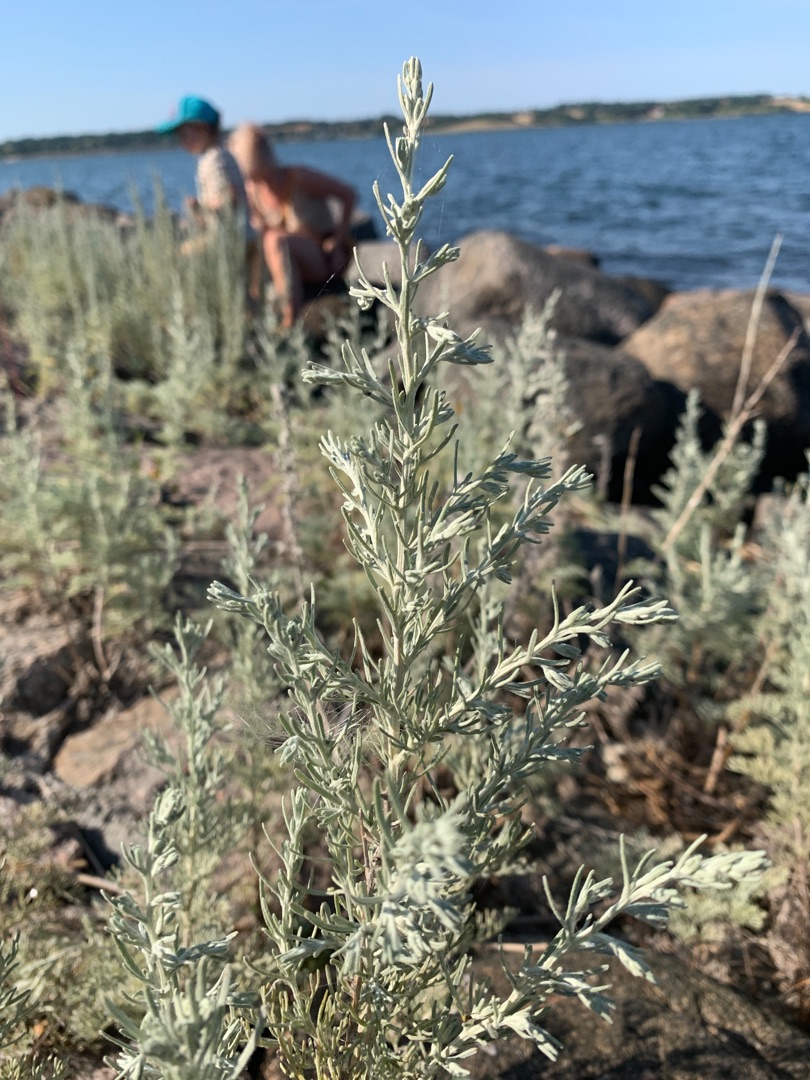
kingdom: Plantae
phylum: Tracheophyta
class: Magnoliopsida
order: Asterales
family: Asteraceae
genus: Artemisia
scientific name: Artemisia maritima
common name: Strandmalurt
